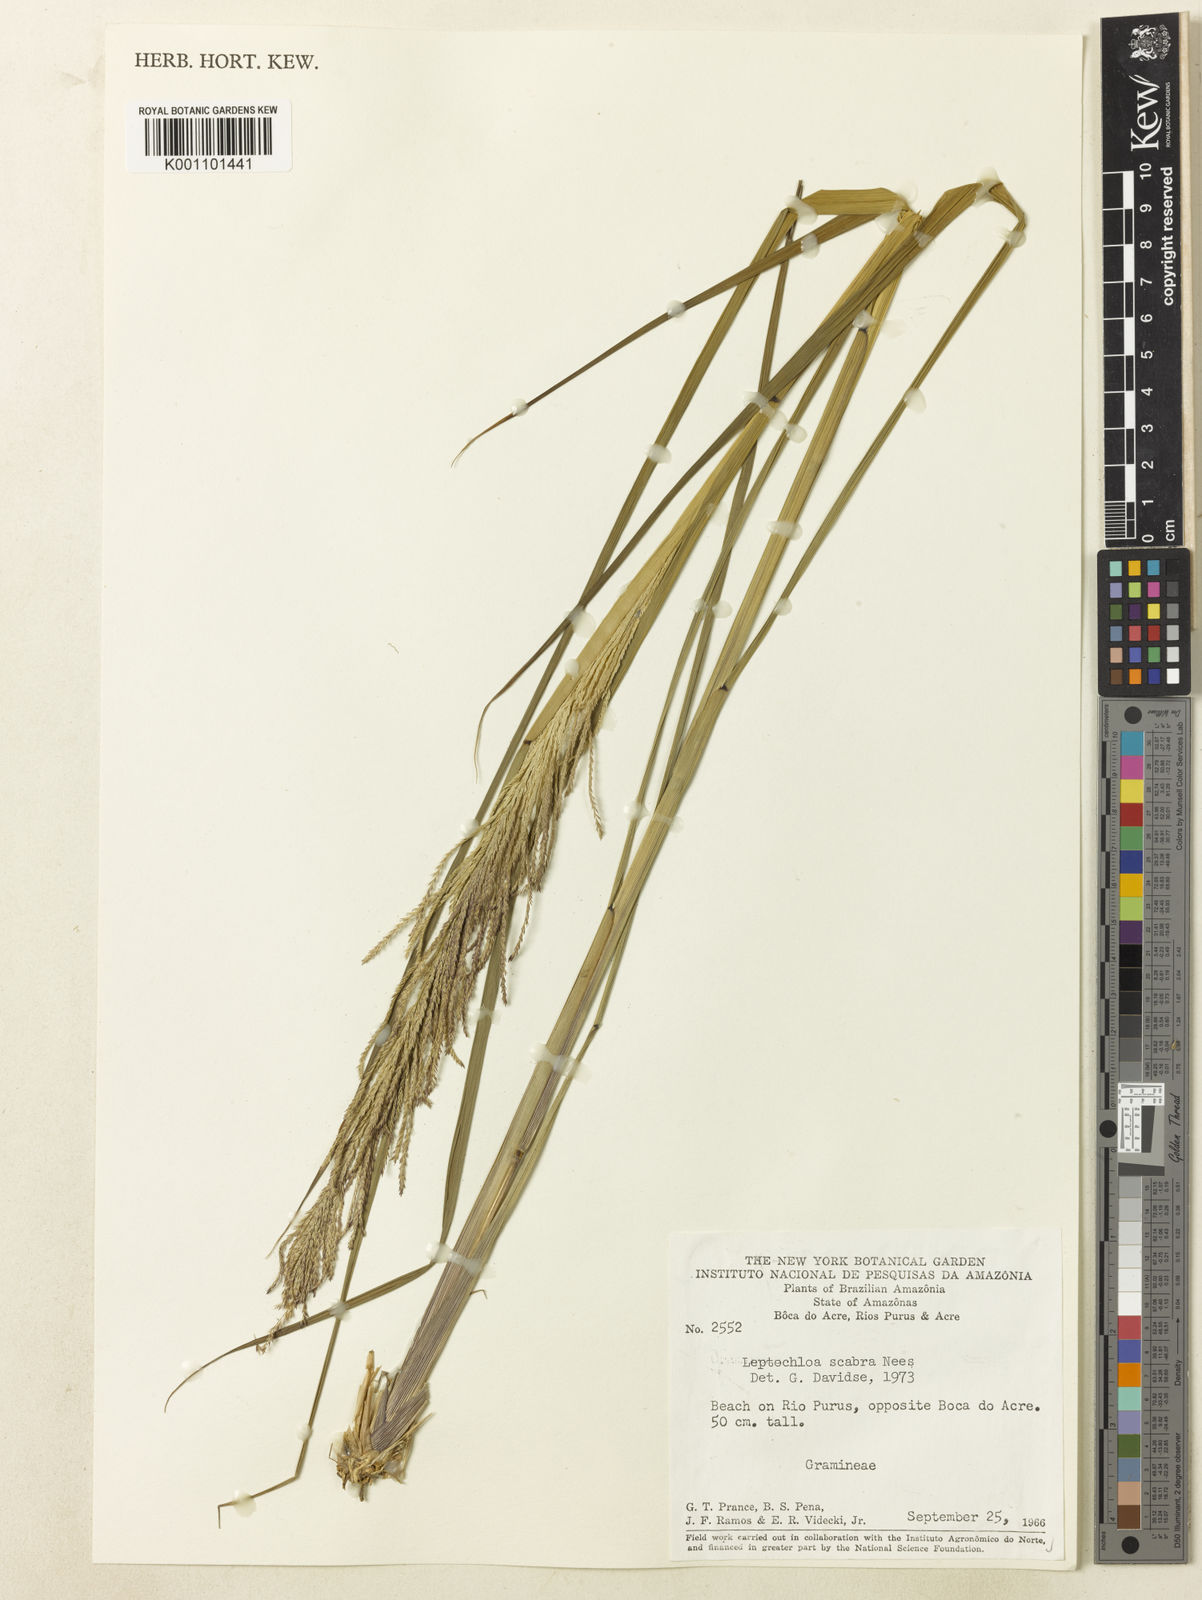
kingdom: Plantae
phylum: Tracheophyta
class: Liliopsida
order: Poales
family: Poaceae
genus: Leptochloa
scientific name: Leptochloa
